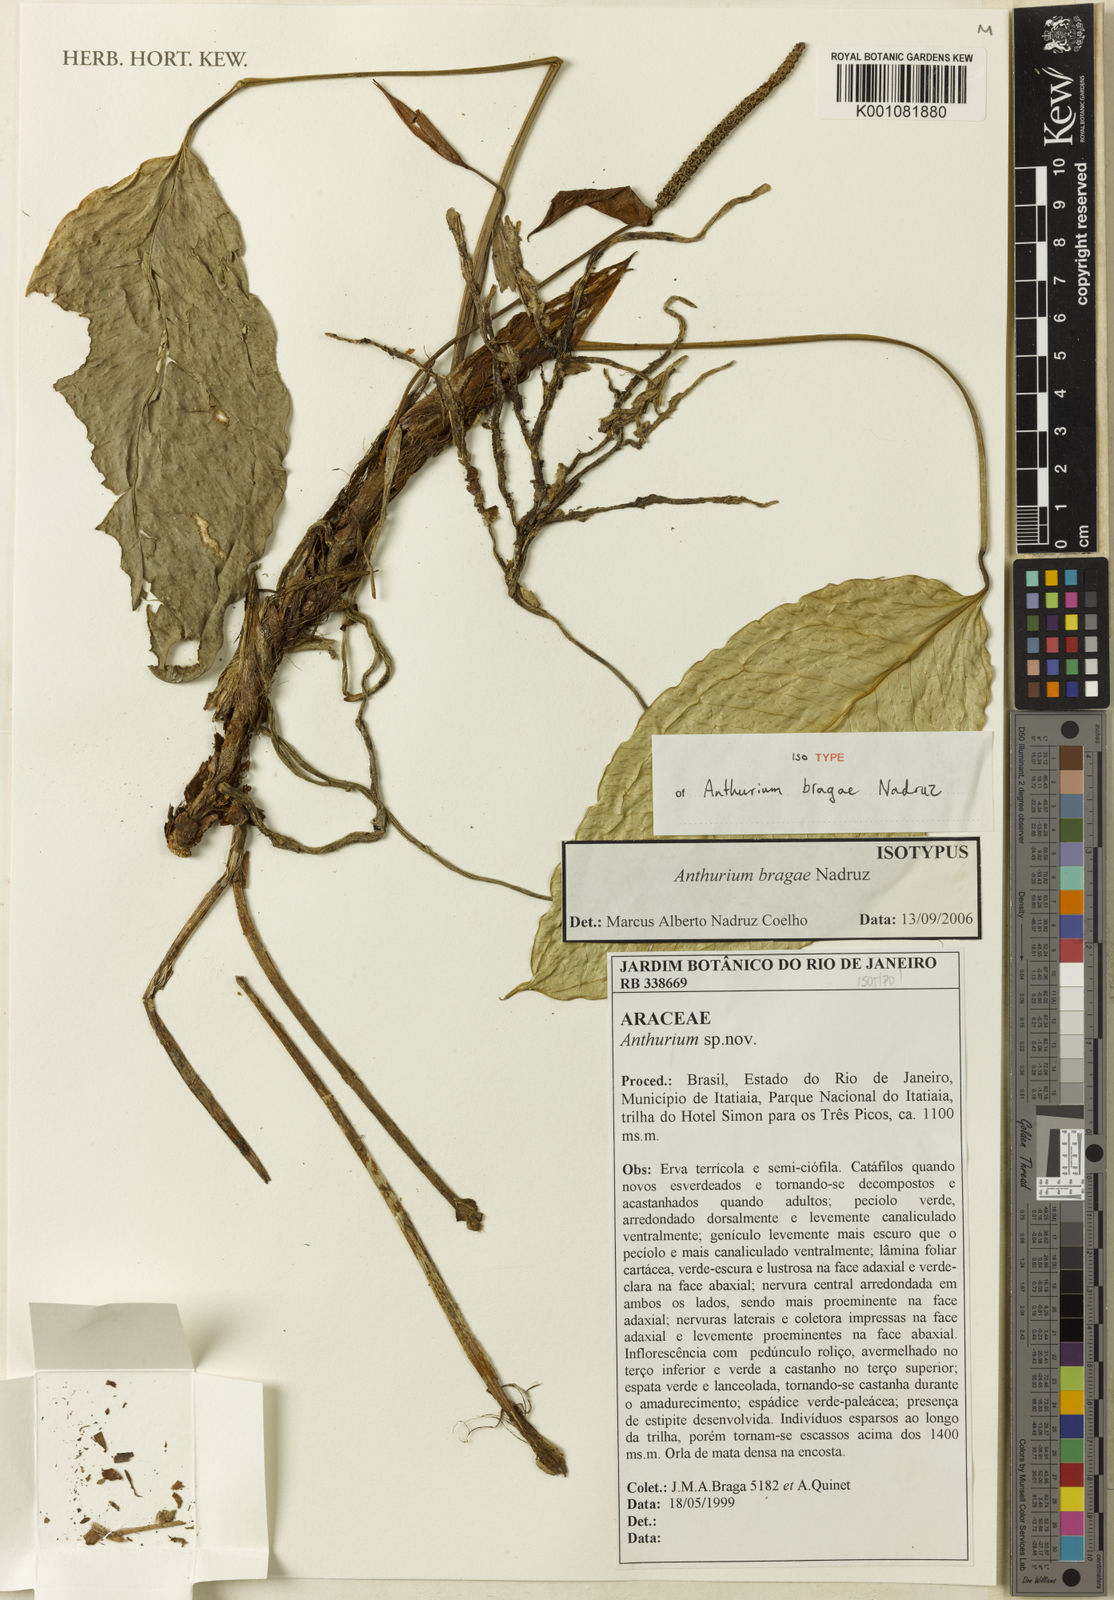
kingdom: Plantae
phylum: Tracheophyta
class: Liliopsida
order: Alismatales
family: Araceae
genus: Anthurium
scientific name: Anthurium bragae
